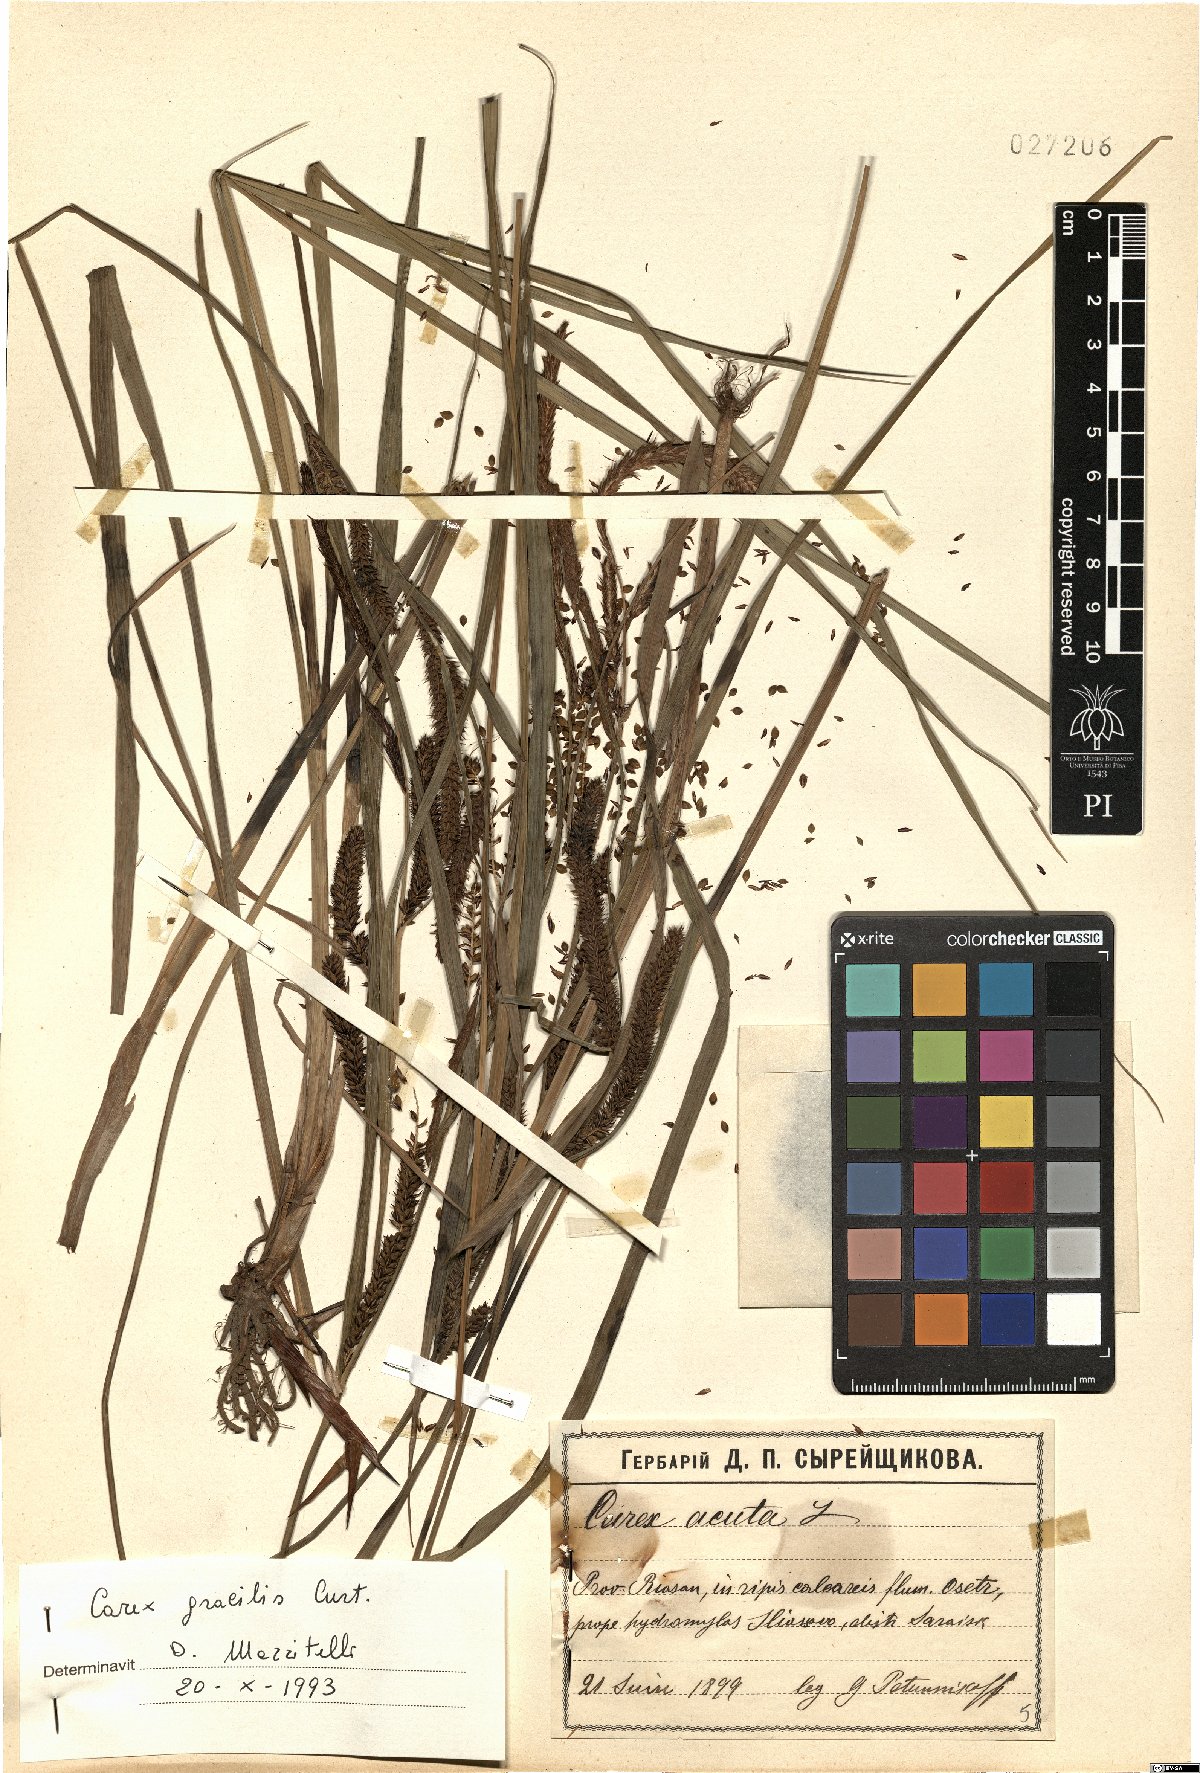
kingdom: Plantae
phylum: Tracheophyta
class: Liliopsida
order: Poales
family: Cyperaceae
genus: Carex
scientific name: Carex acuta
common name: Slender tufted-sedge
